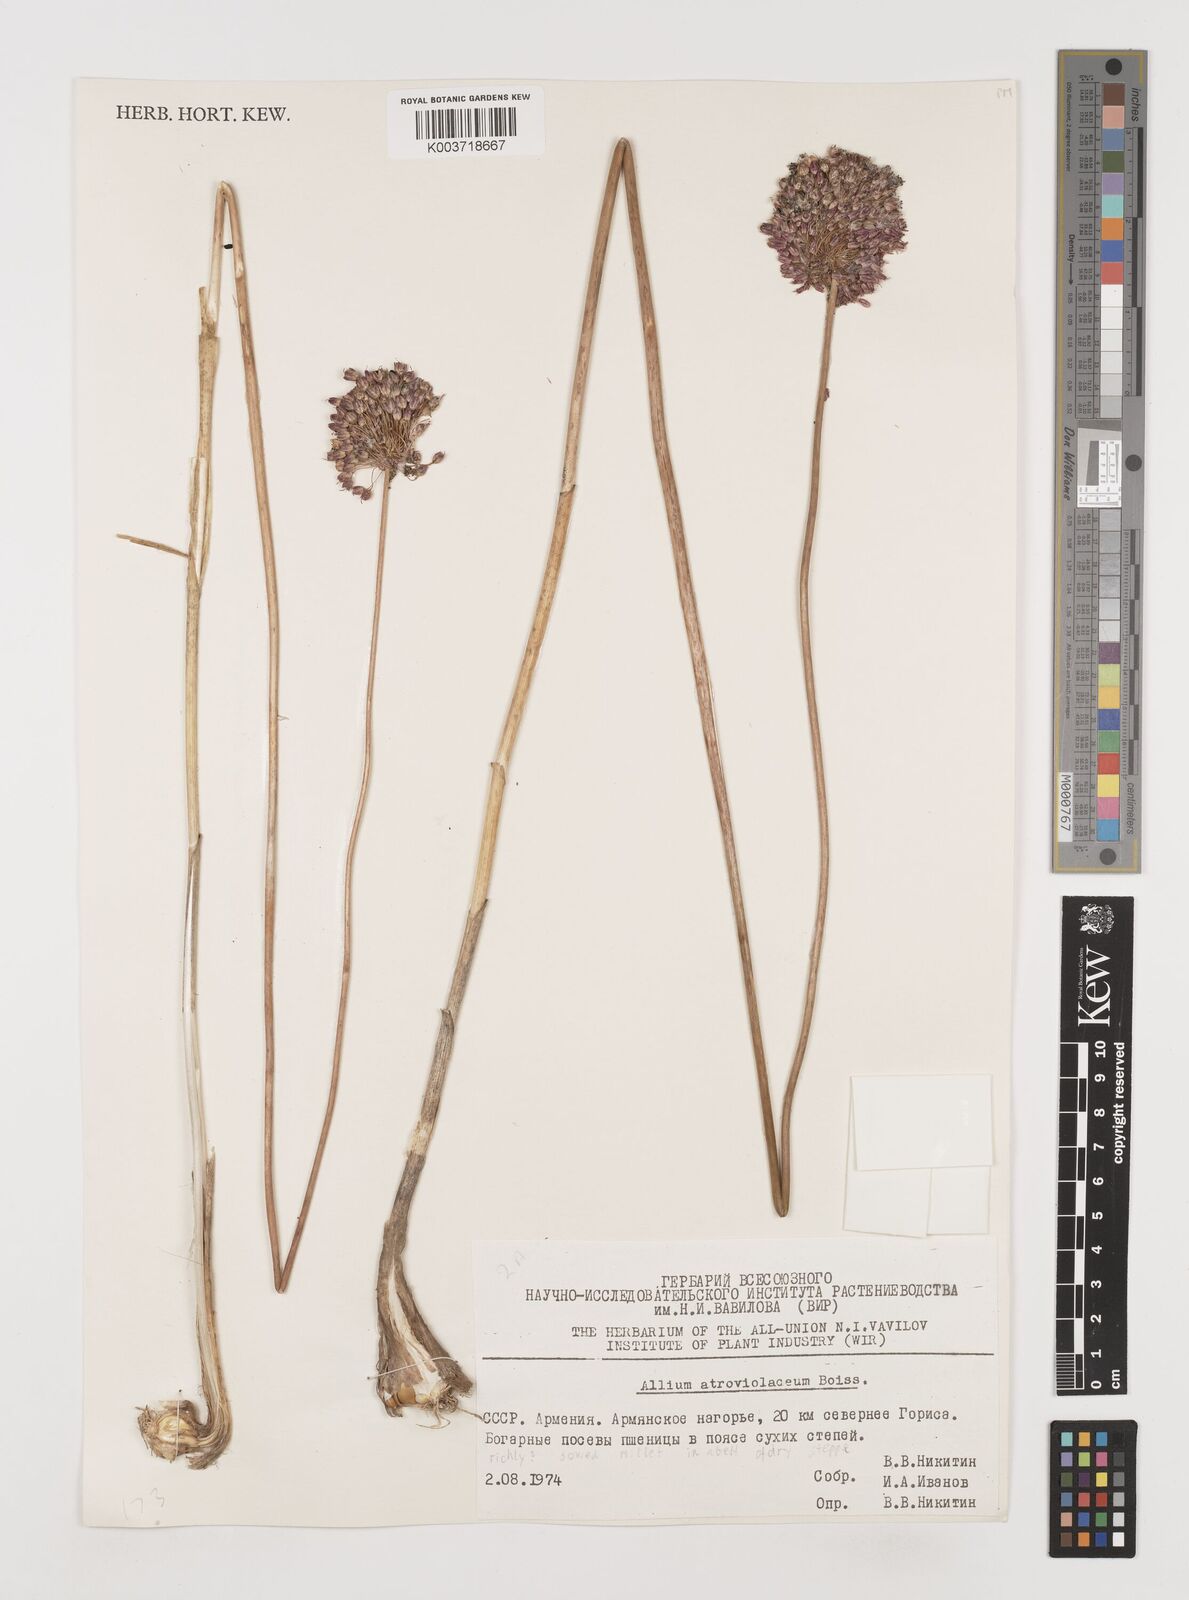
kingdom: Plantae
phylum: Tracheophyta
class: Liliopsida
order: Asparagales
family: Amaryllidaceae
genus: Allium
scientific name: Allium atroviolaceum
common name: Broadleaf wild leek
